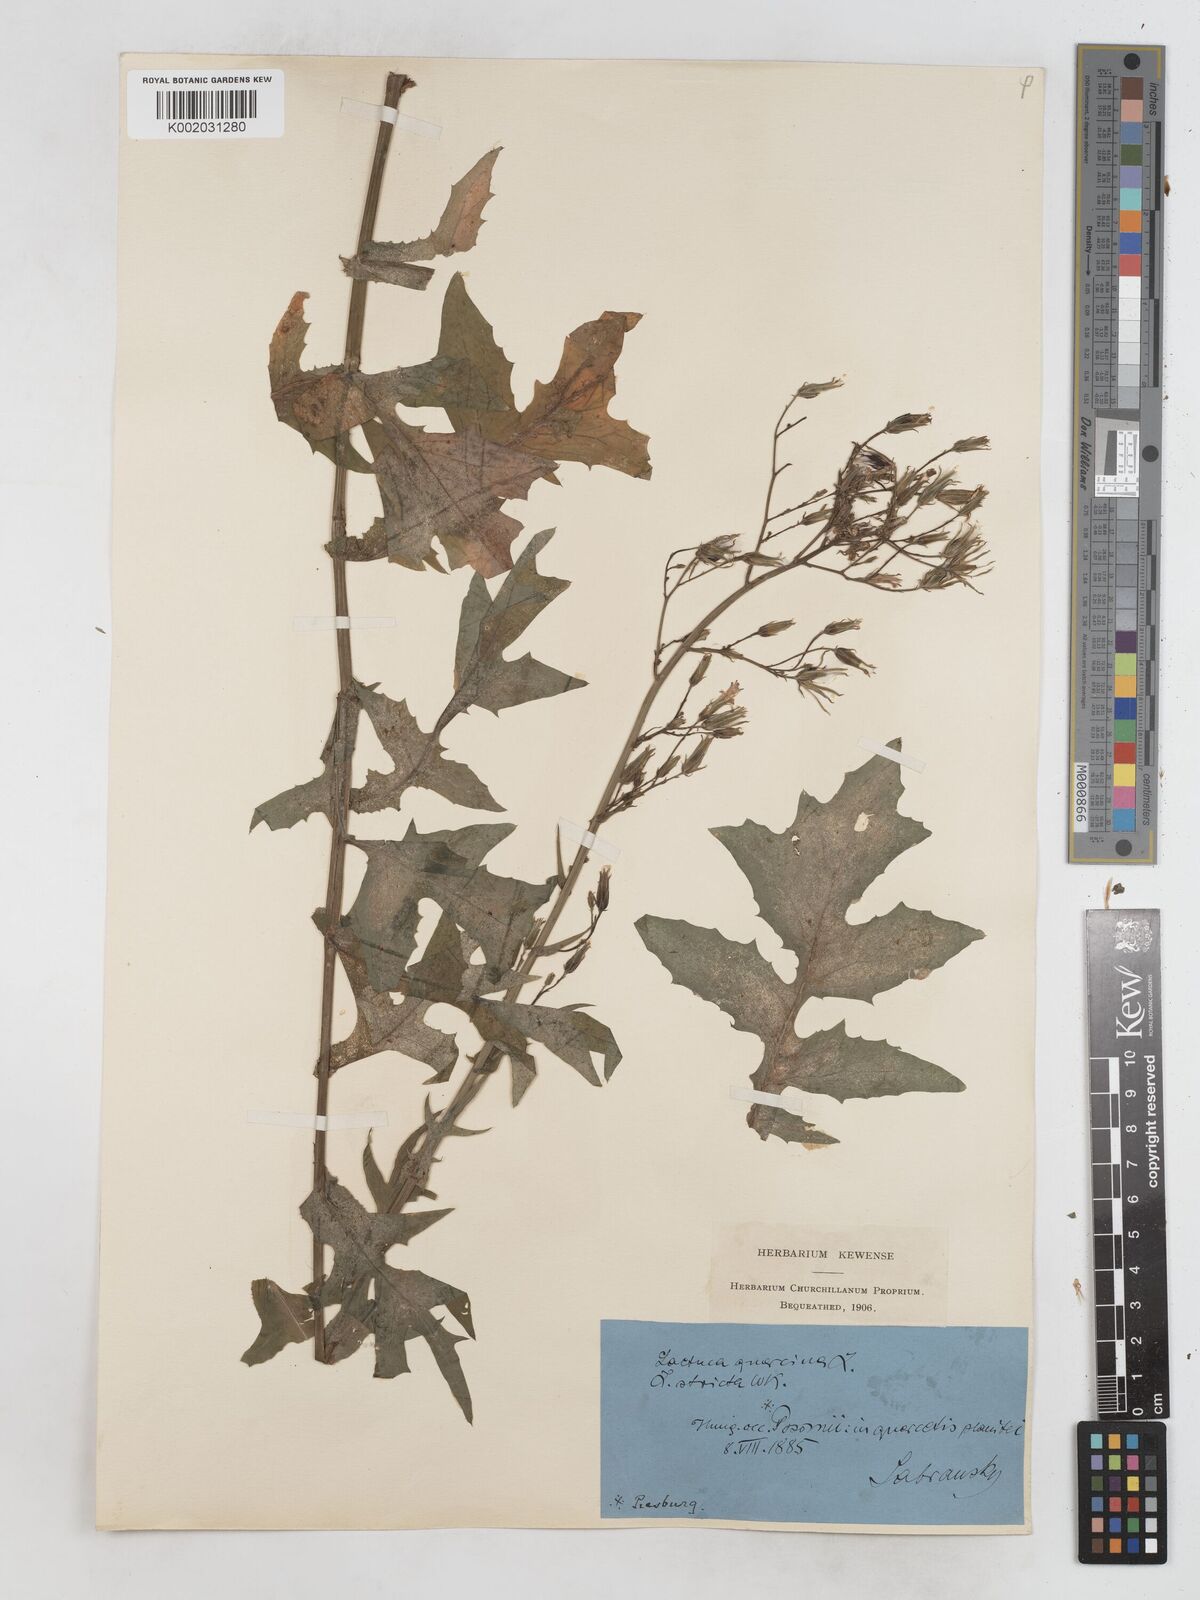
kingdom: Plantae
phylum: Tracheophyta
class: Magnoliopsida
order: Asterales
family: Asteraceae
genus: Lactuca
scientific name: Lactuca quercina
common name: Wild lettuce
